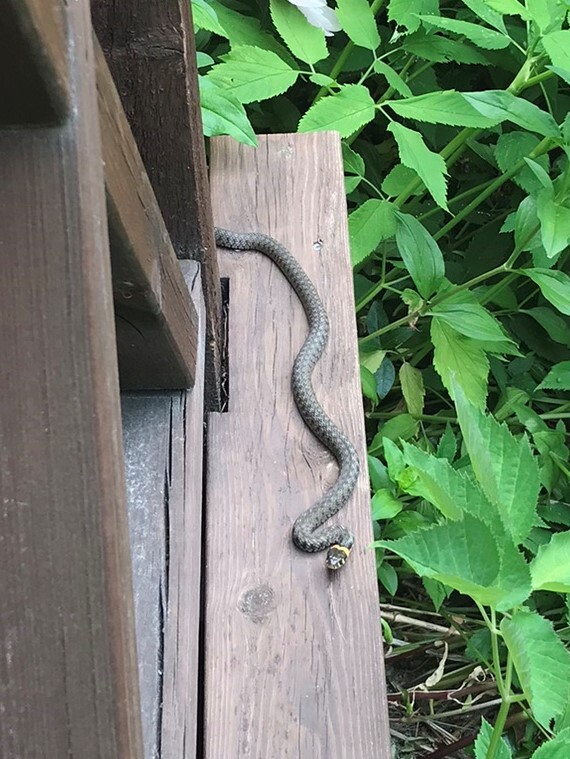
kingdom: Animalia
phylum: Chordata
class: Squamata
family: Colubridae
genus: Natrix
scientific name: Natrix natrix
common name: Grass snake
